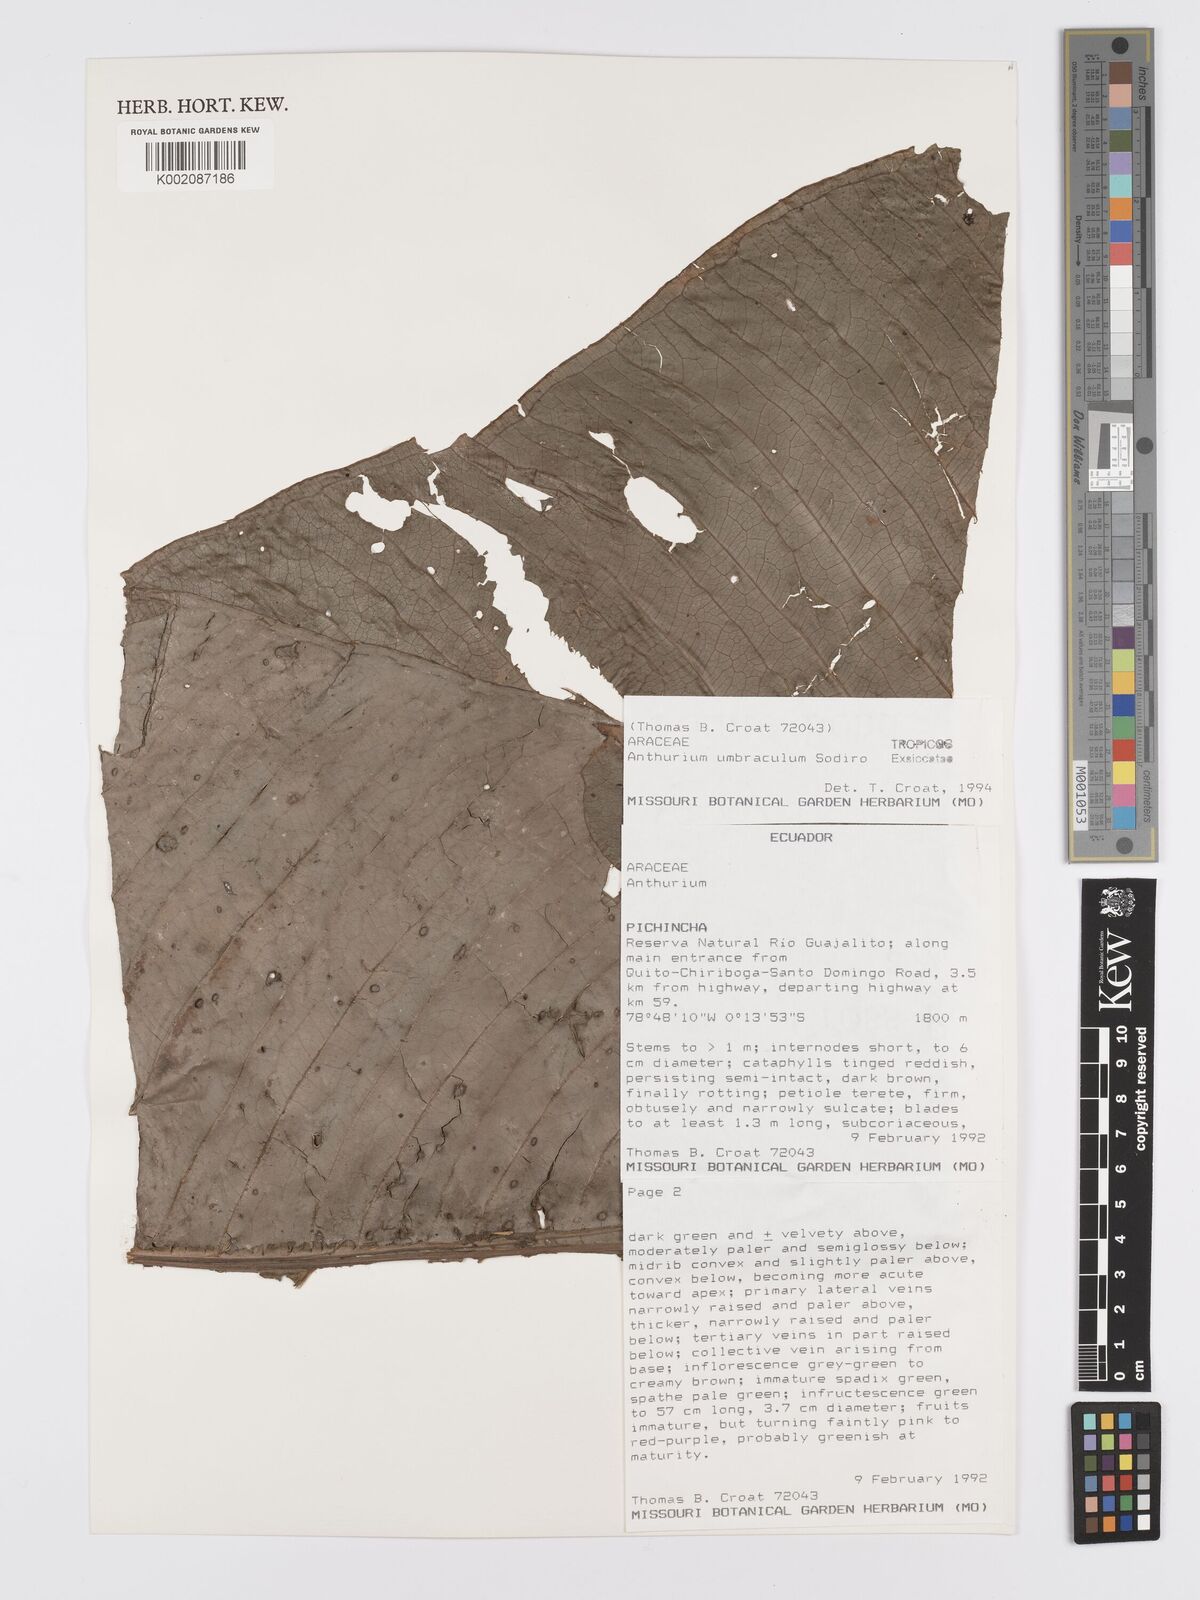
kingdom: Plantae
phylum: Tracheophyta
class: Liliopsida
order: Alismatales
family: Araceae
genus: Anthurium
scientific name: Anthurium umbraculum
